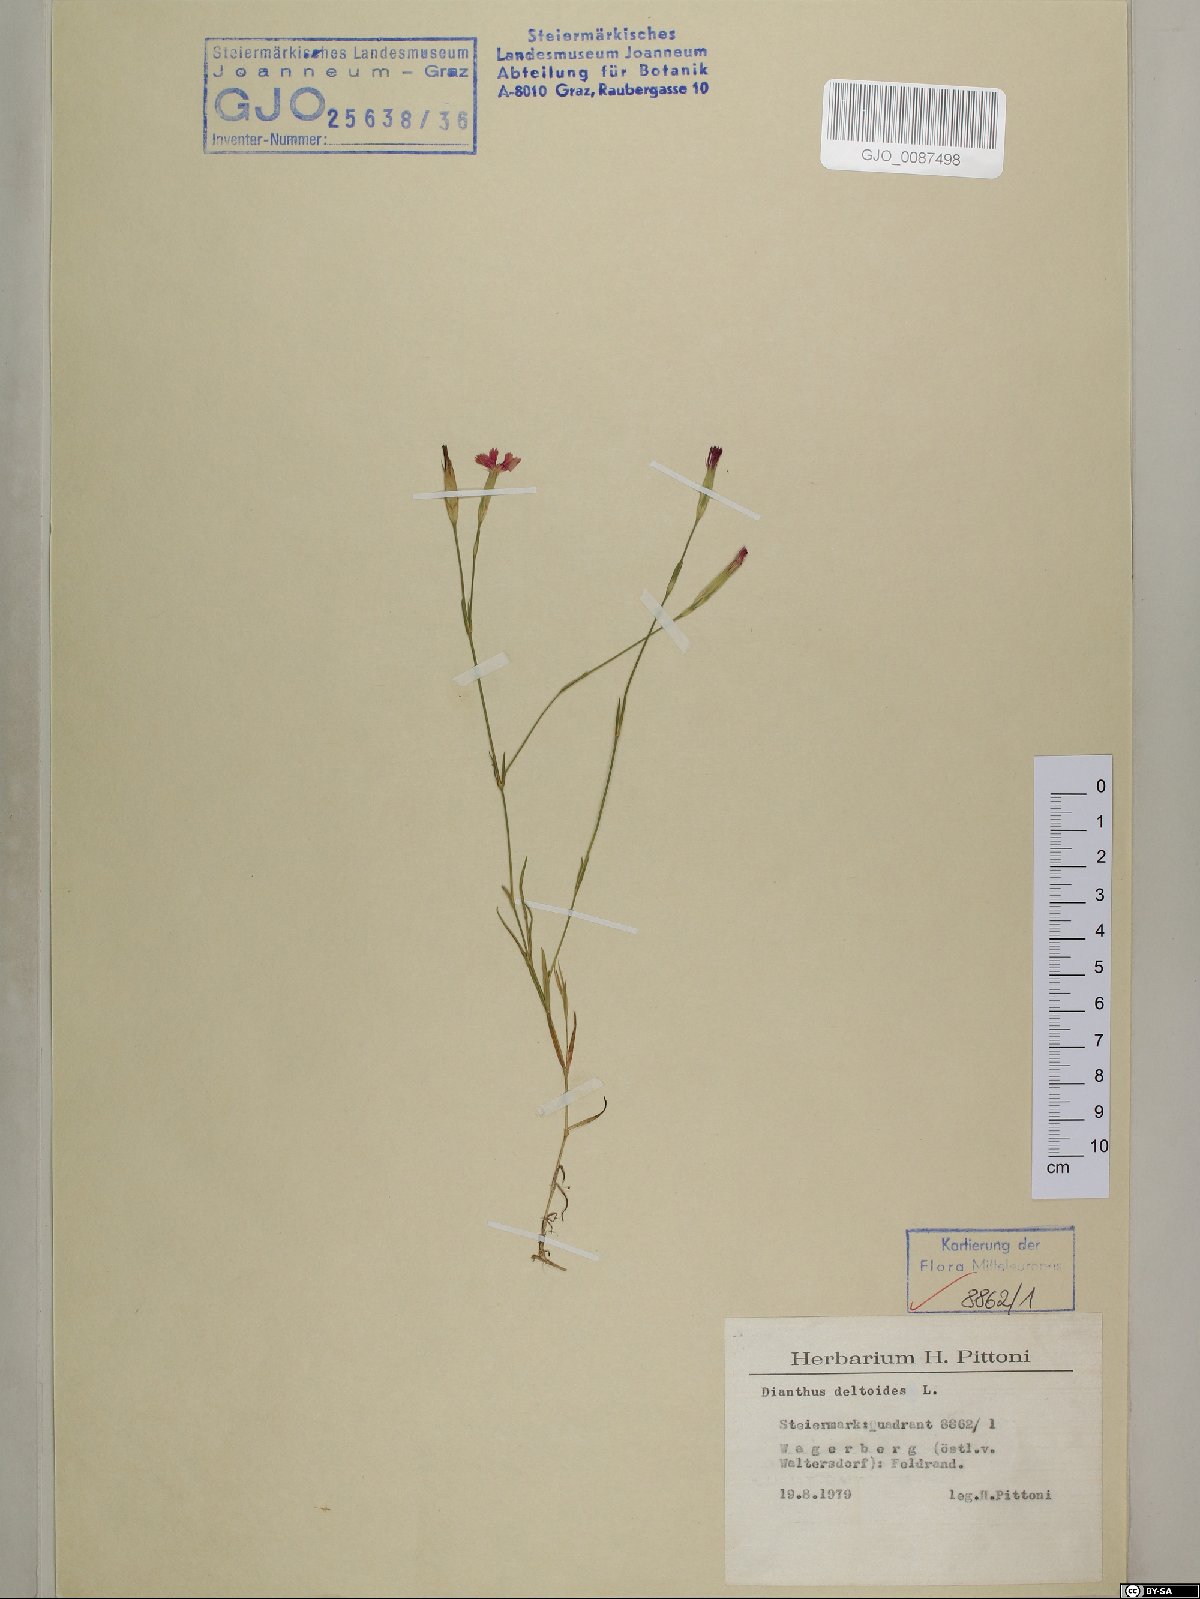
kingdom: Plantae
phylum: Tracheophyta
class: Magnoliopsida
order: Gentianales
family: Gentianaceae
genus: Comastoma
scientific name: Comastoma tenellum
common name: Dane's dwarf gentian
